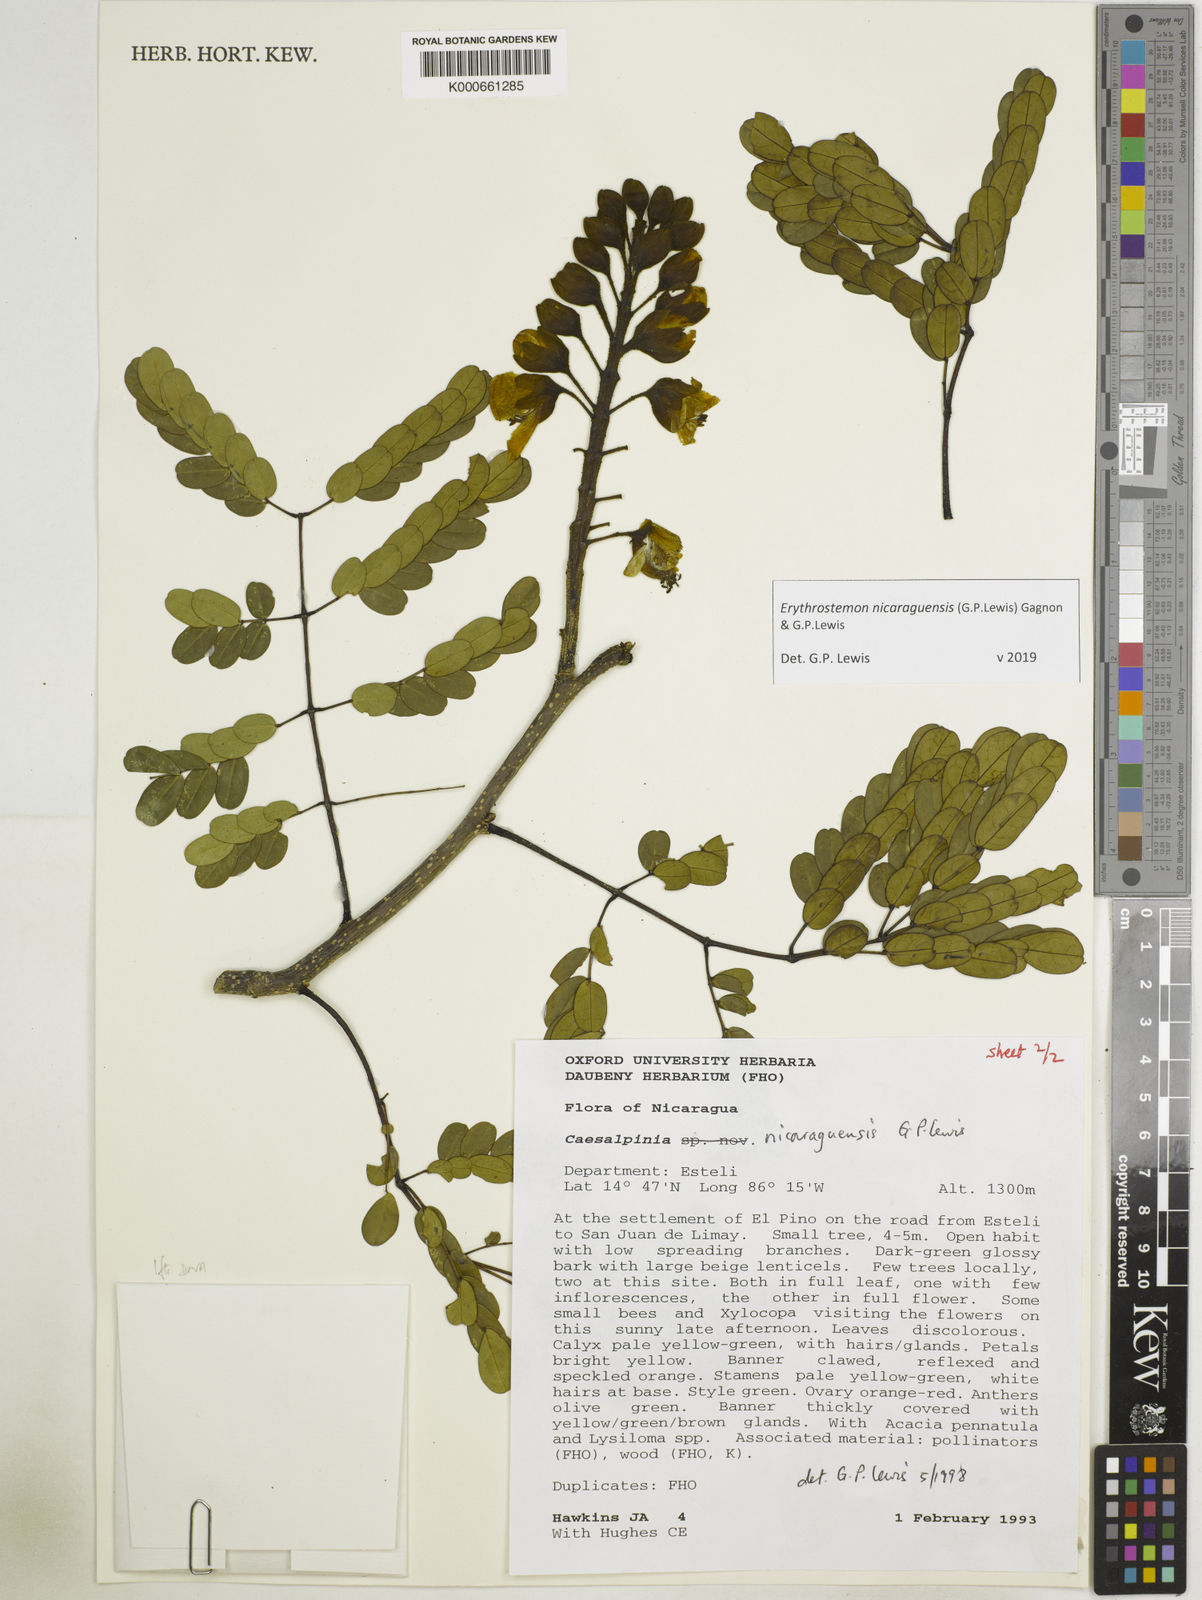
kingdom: Plantae
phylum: Tracheophyta
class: Magnoliopsida
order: Fabales
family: Fabaceae
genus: Erythrostemon
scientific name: Erythrostemon nicaraguensis
